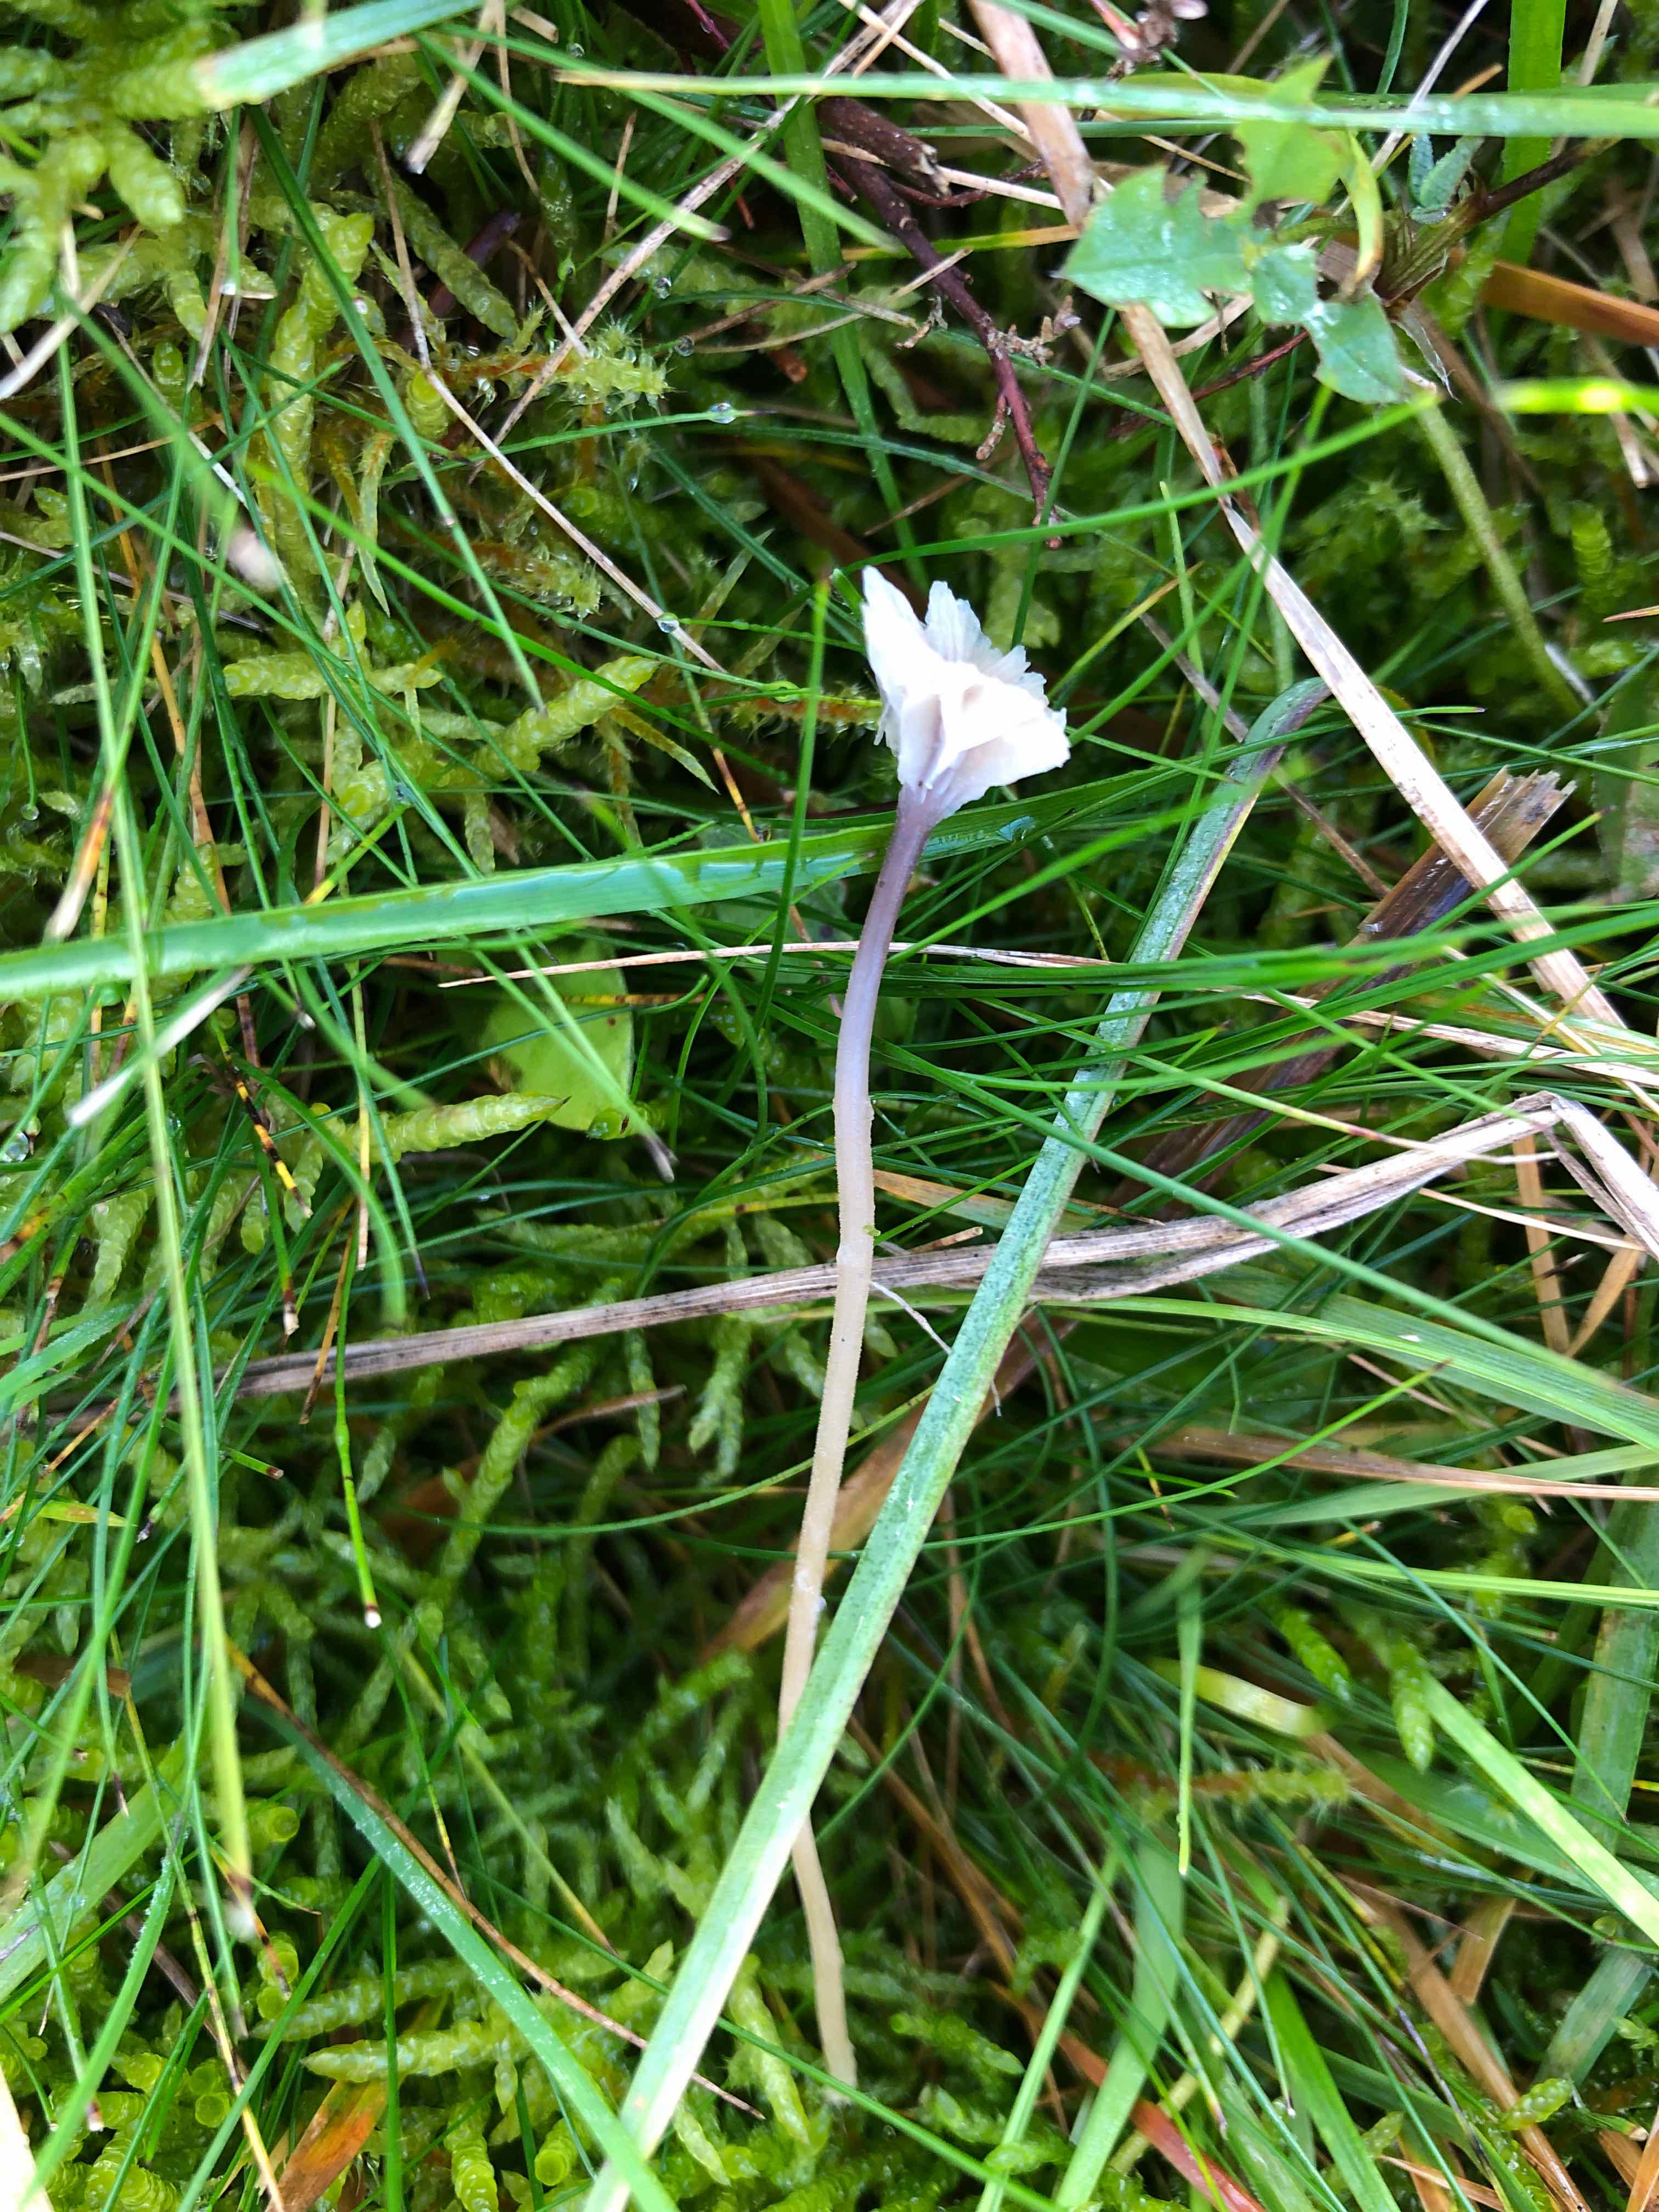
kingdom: Fungi
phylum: Basidiomycota
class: Agaricomycetes
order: Hymenochaetales
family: Rickenellaceae
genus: Rickenella
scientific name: Rickenella swartzii
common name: finstokket mosnavlehat
